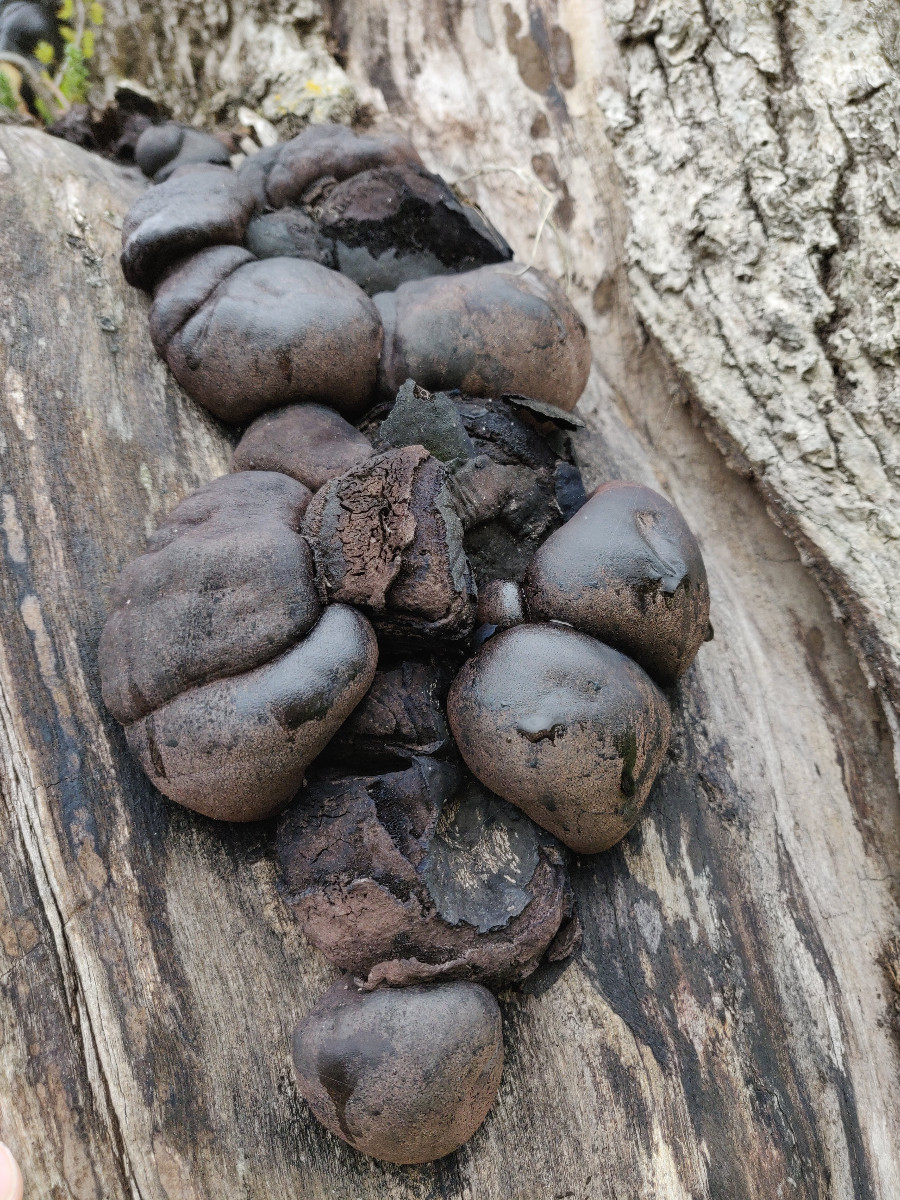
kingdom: Fungi
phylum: Ascomycota
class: Sordariomycetes
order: Xylariales
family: Hypoxylaceae
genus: Daldinia
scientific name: Daldinia concentrica
